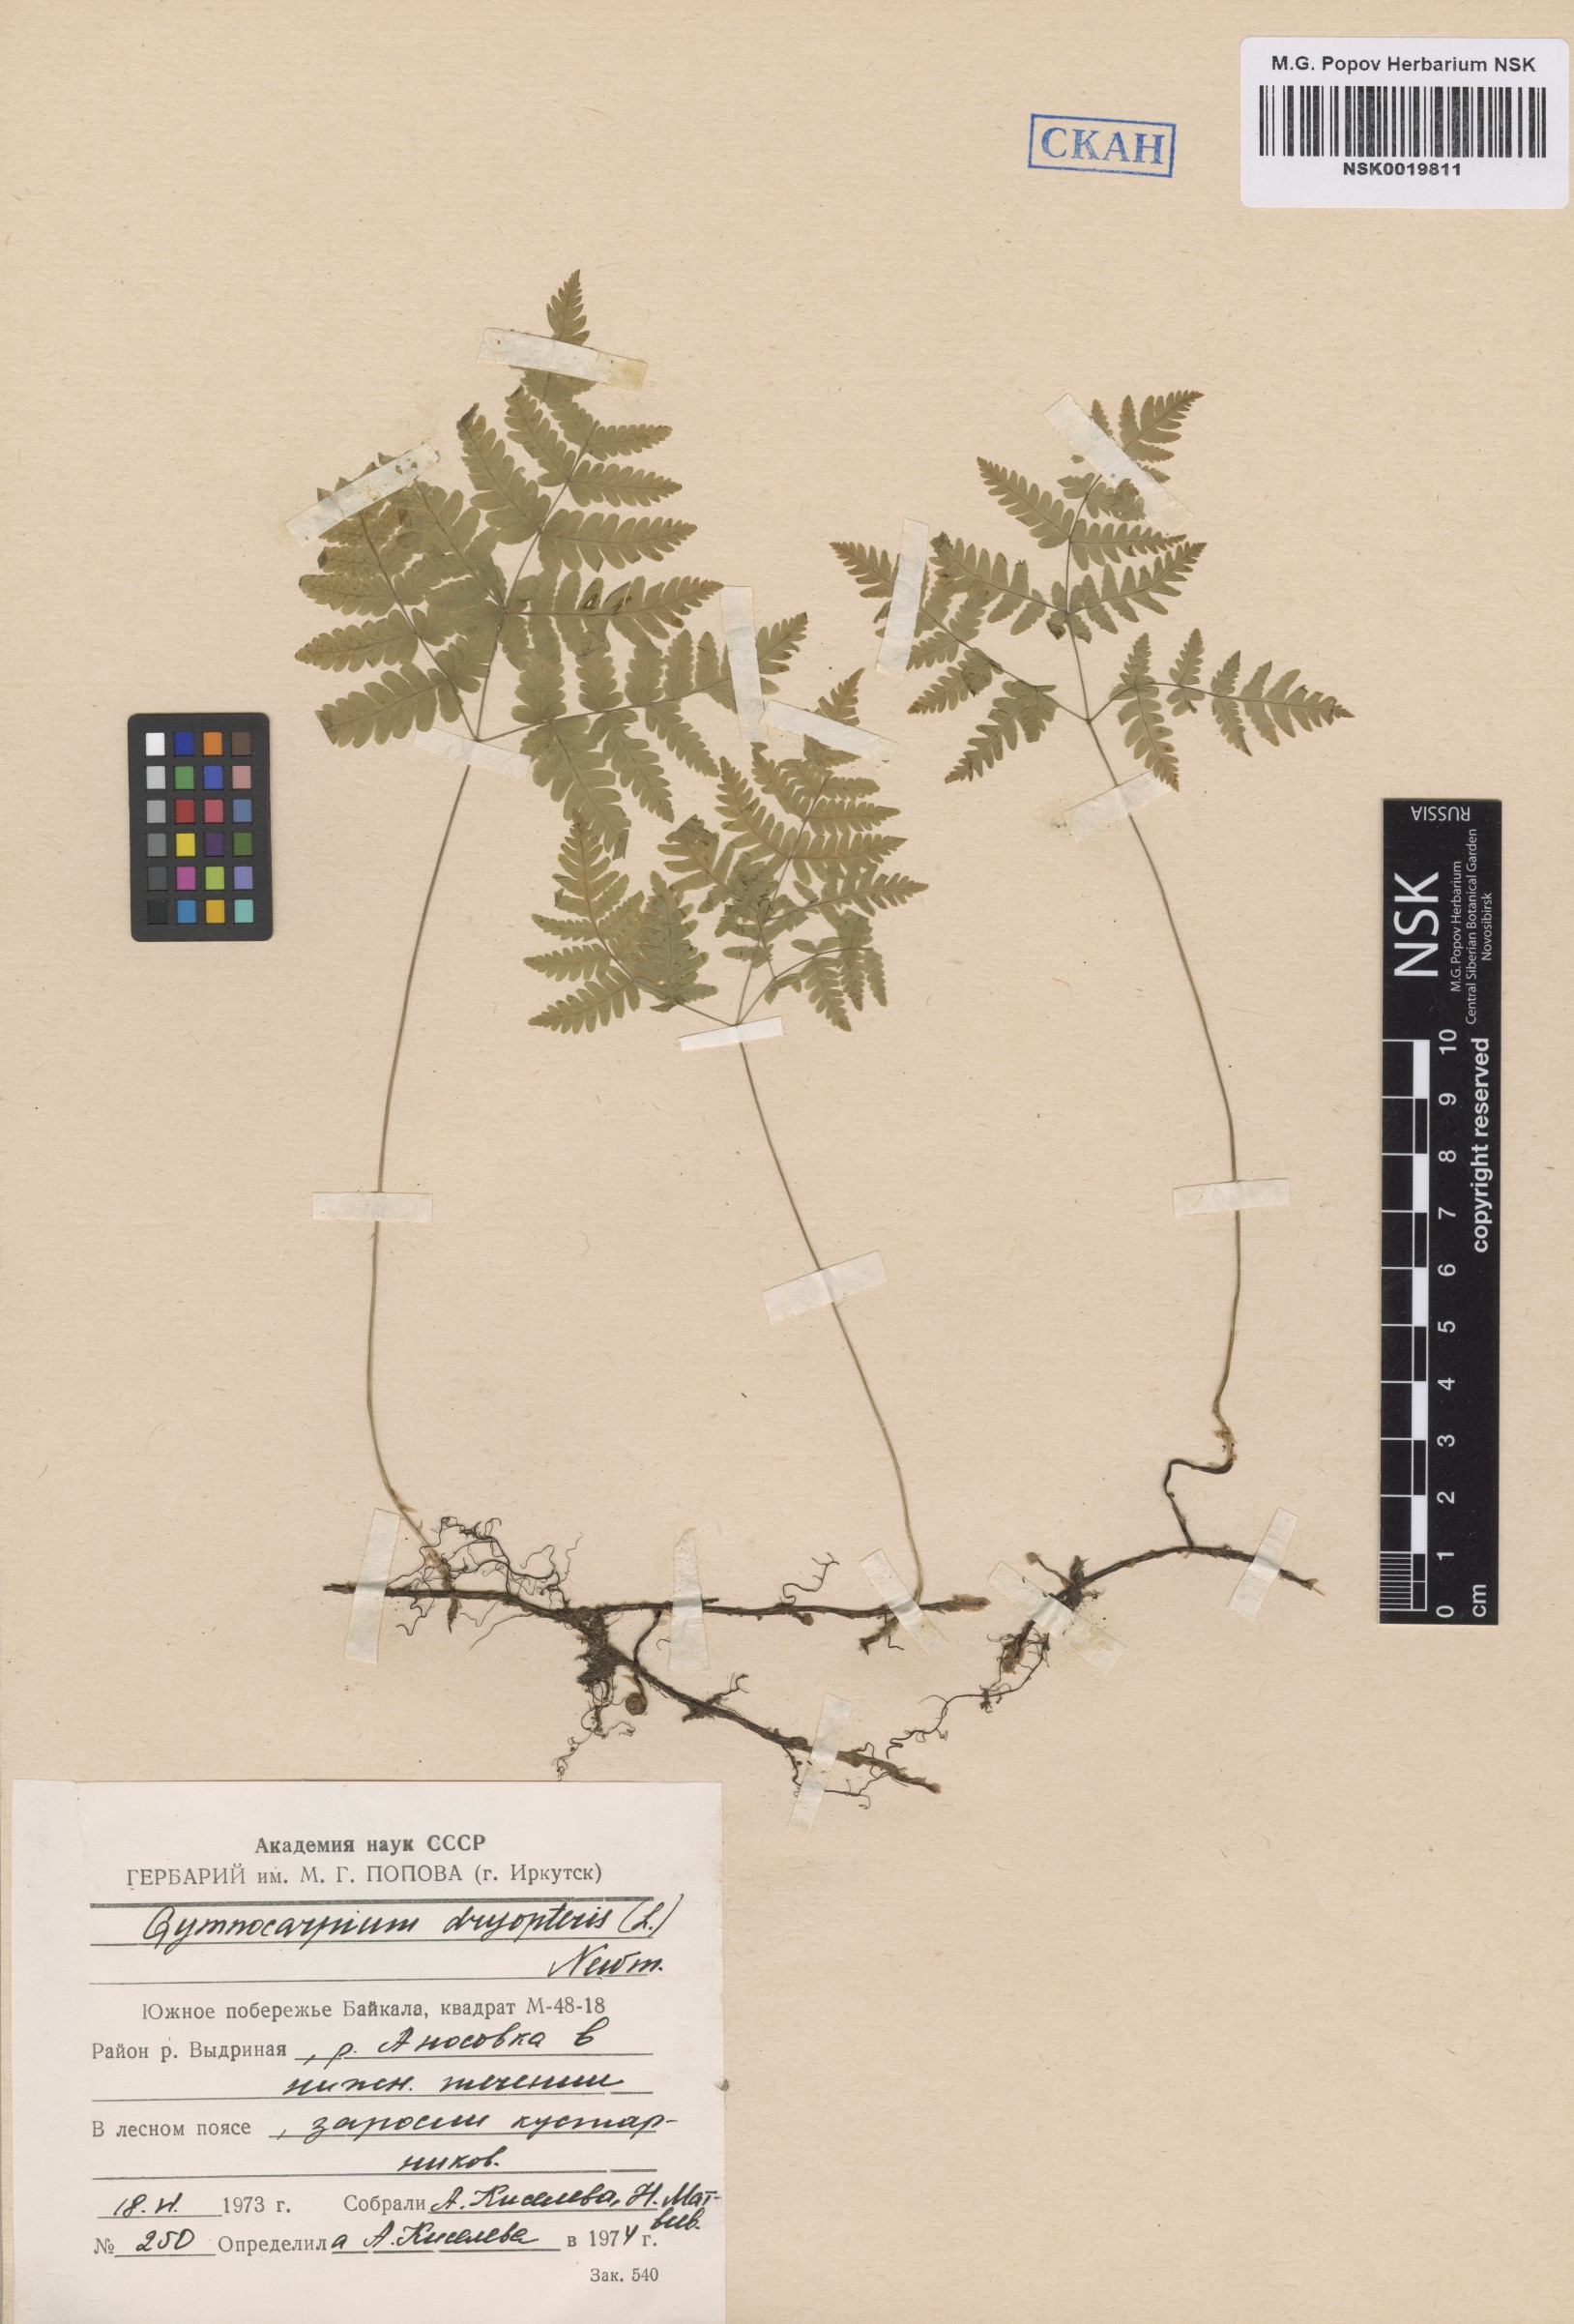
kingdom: Plantae
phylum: Tracheophyta
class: Polypodiopsida
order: Polypodiales
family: Cystopteridaceae
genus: Gymnocarpium
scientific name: Gymnocarpium dryopteris
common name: Oak fern
